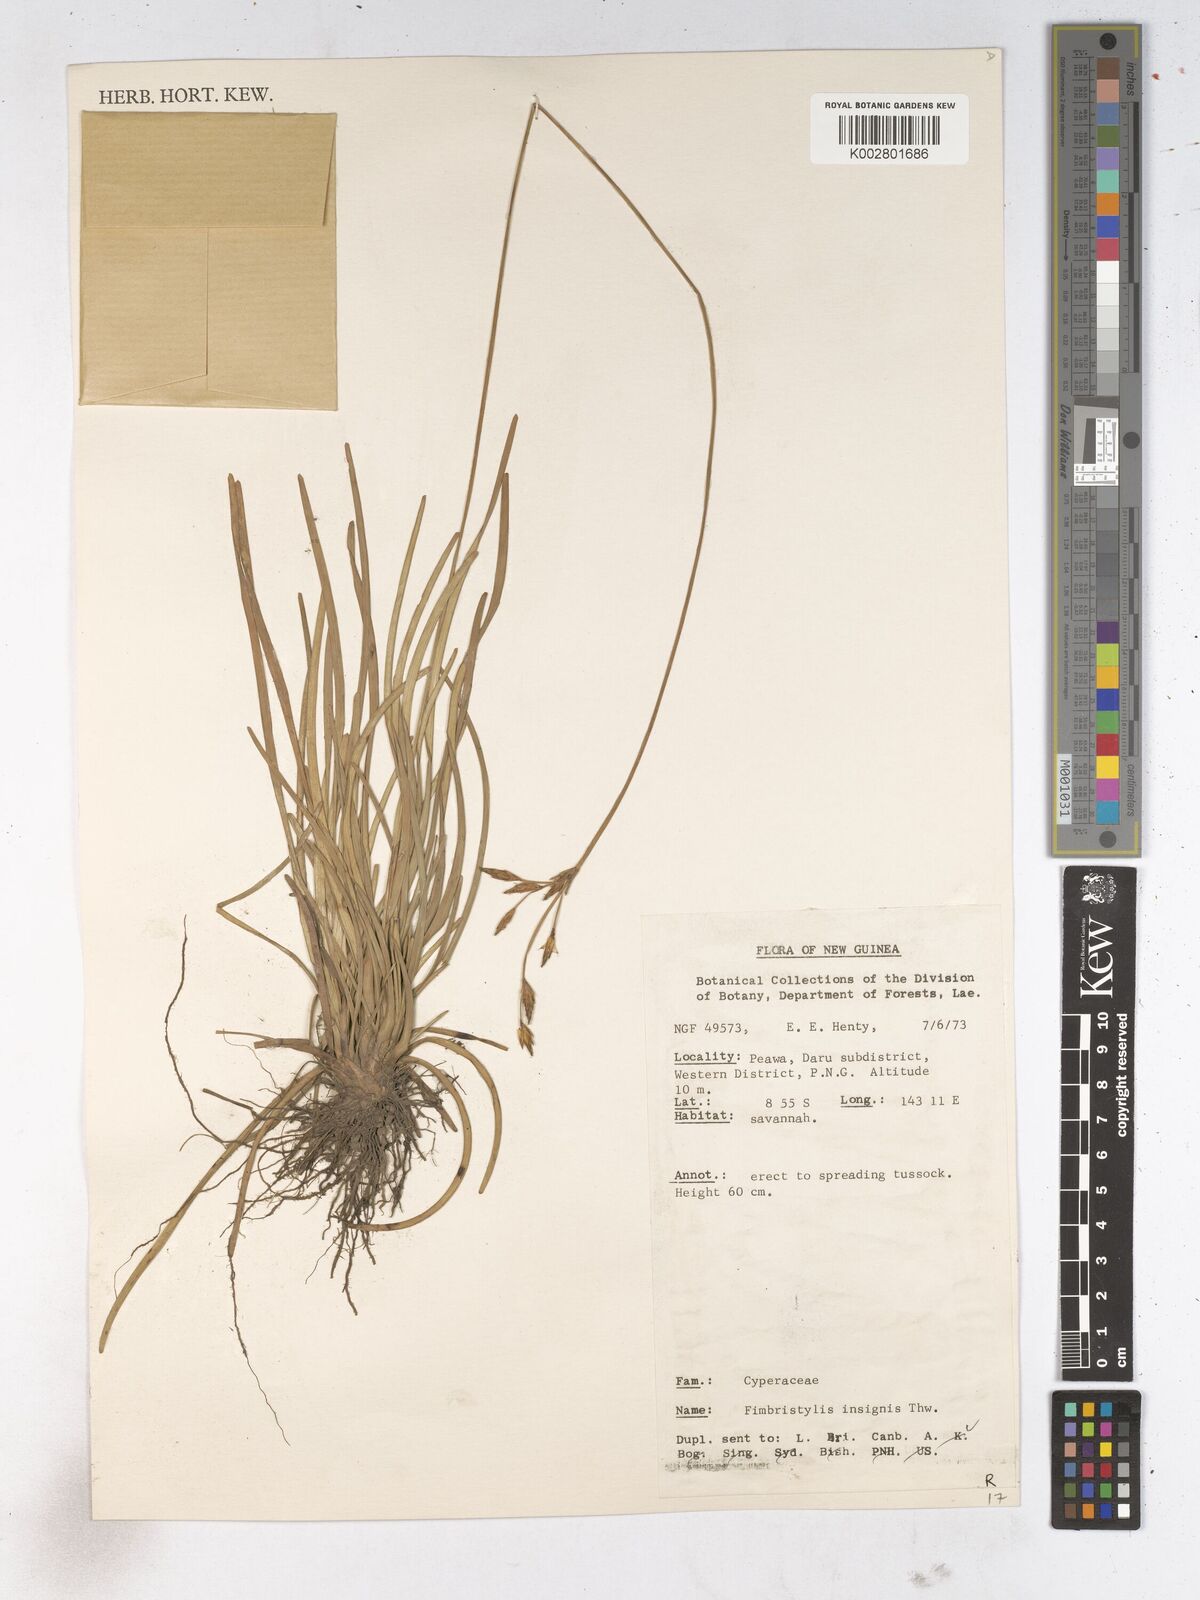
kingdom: Plantae
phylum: Tracheophyta
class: Liliopsida
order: Poales
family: Cyperaceae
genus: Fimbristylis
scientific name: Fimbristylis insignis
